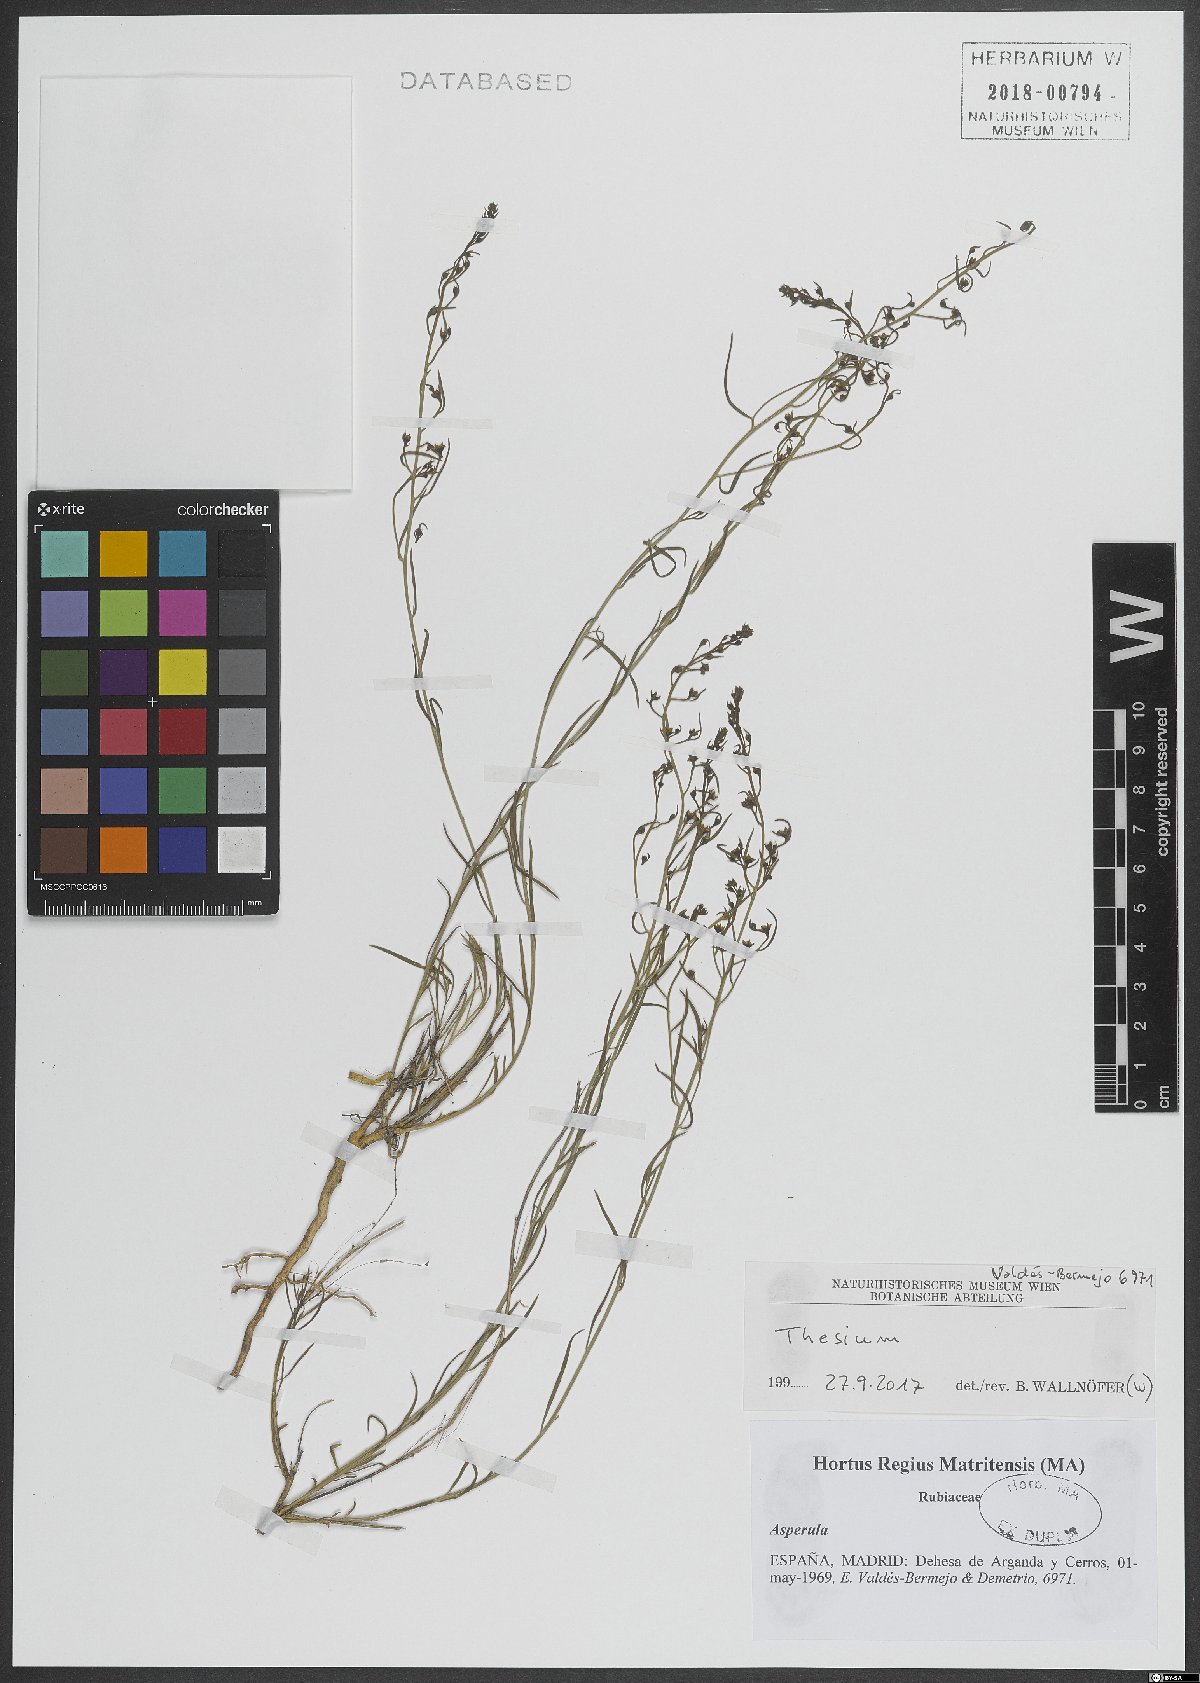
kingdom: Plantae
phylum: Tracheophyta
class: Magnoliopsida
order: Santalales
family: Thesiaceae
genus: Thesium
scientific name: Thesium
